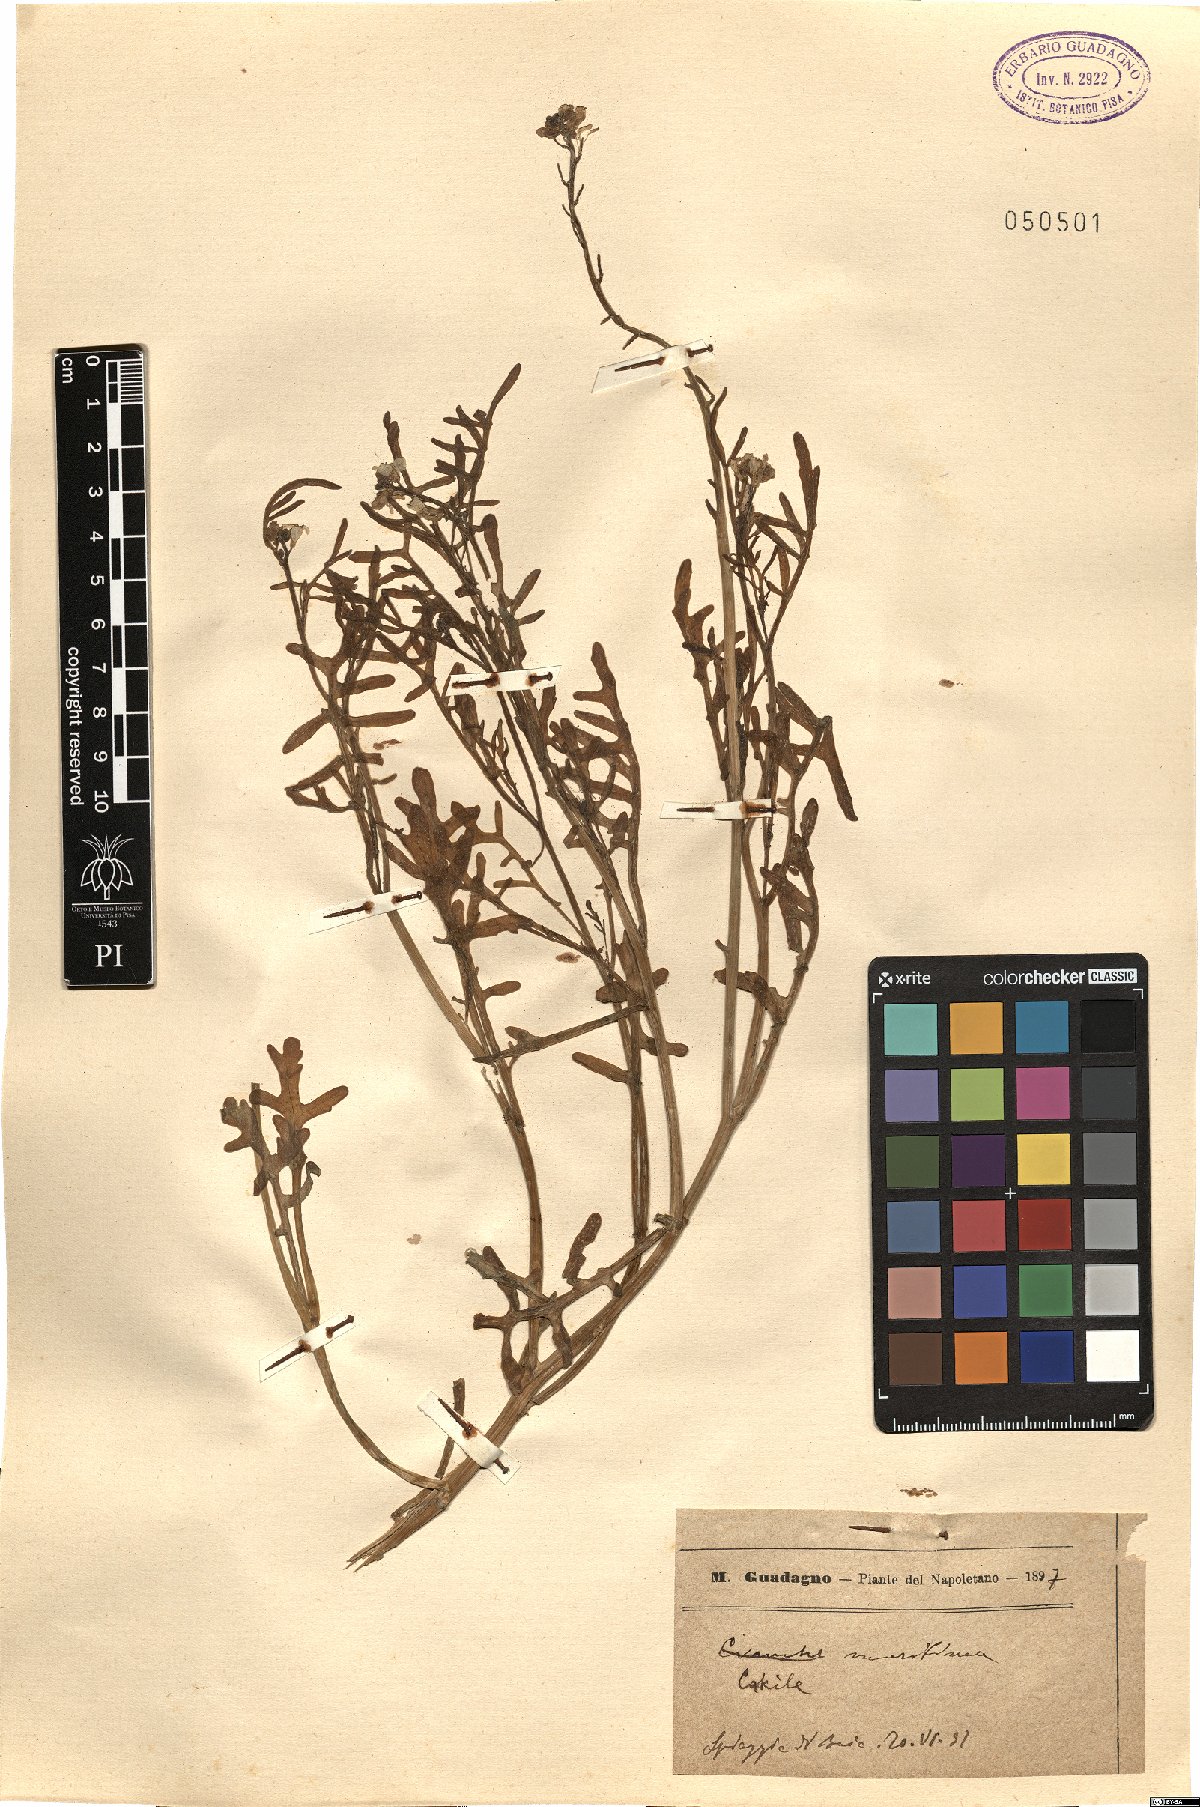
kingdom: Plantae
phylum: Tracheophyta
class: Magnoliopsida
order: Malpighiales
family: Violaceae
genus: Viola
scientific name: Viola arvensis
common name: Field pansy
